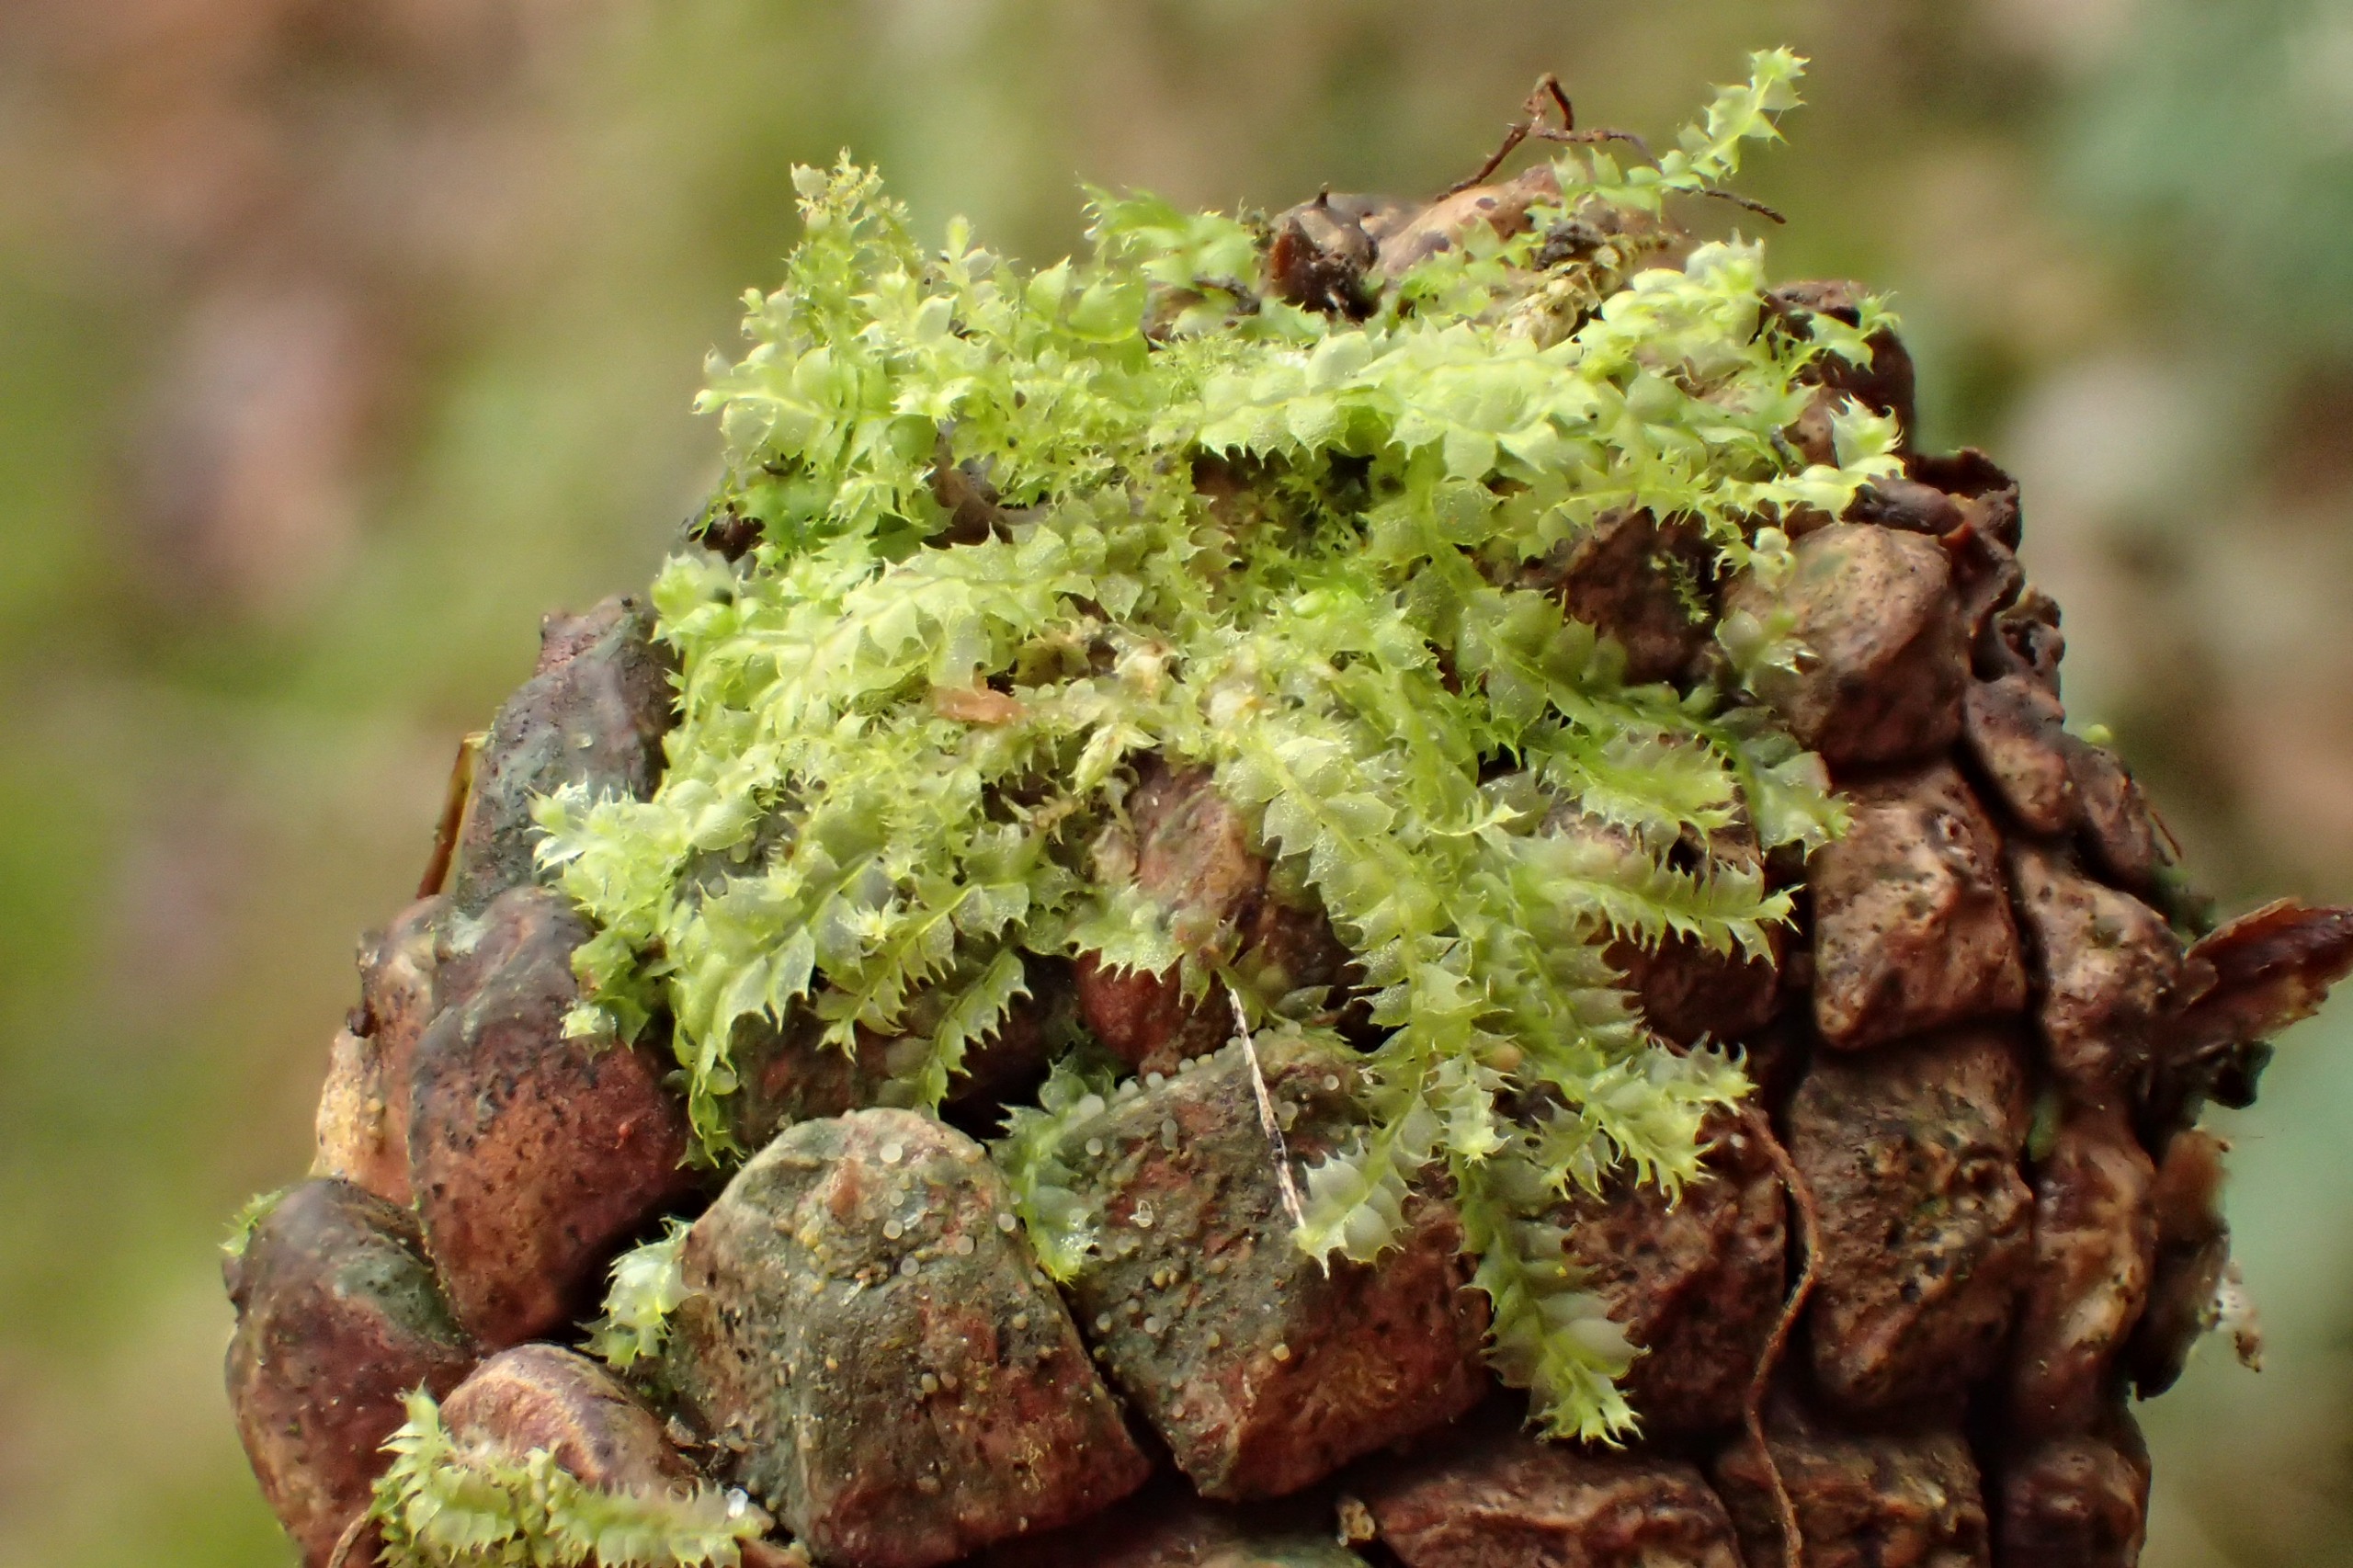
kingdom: Plantae
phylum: Marchantiophyta
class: Jungermanniopsida
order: Jungermanniales
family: Lophocoleaceae
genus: Lophocolea
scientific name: Lophocolea bidentata
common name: Sylspidset kamsvøb
